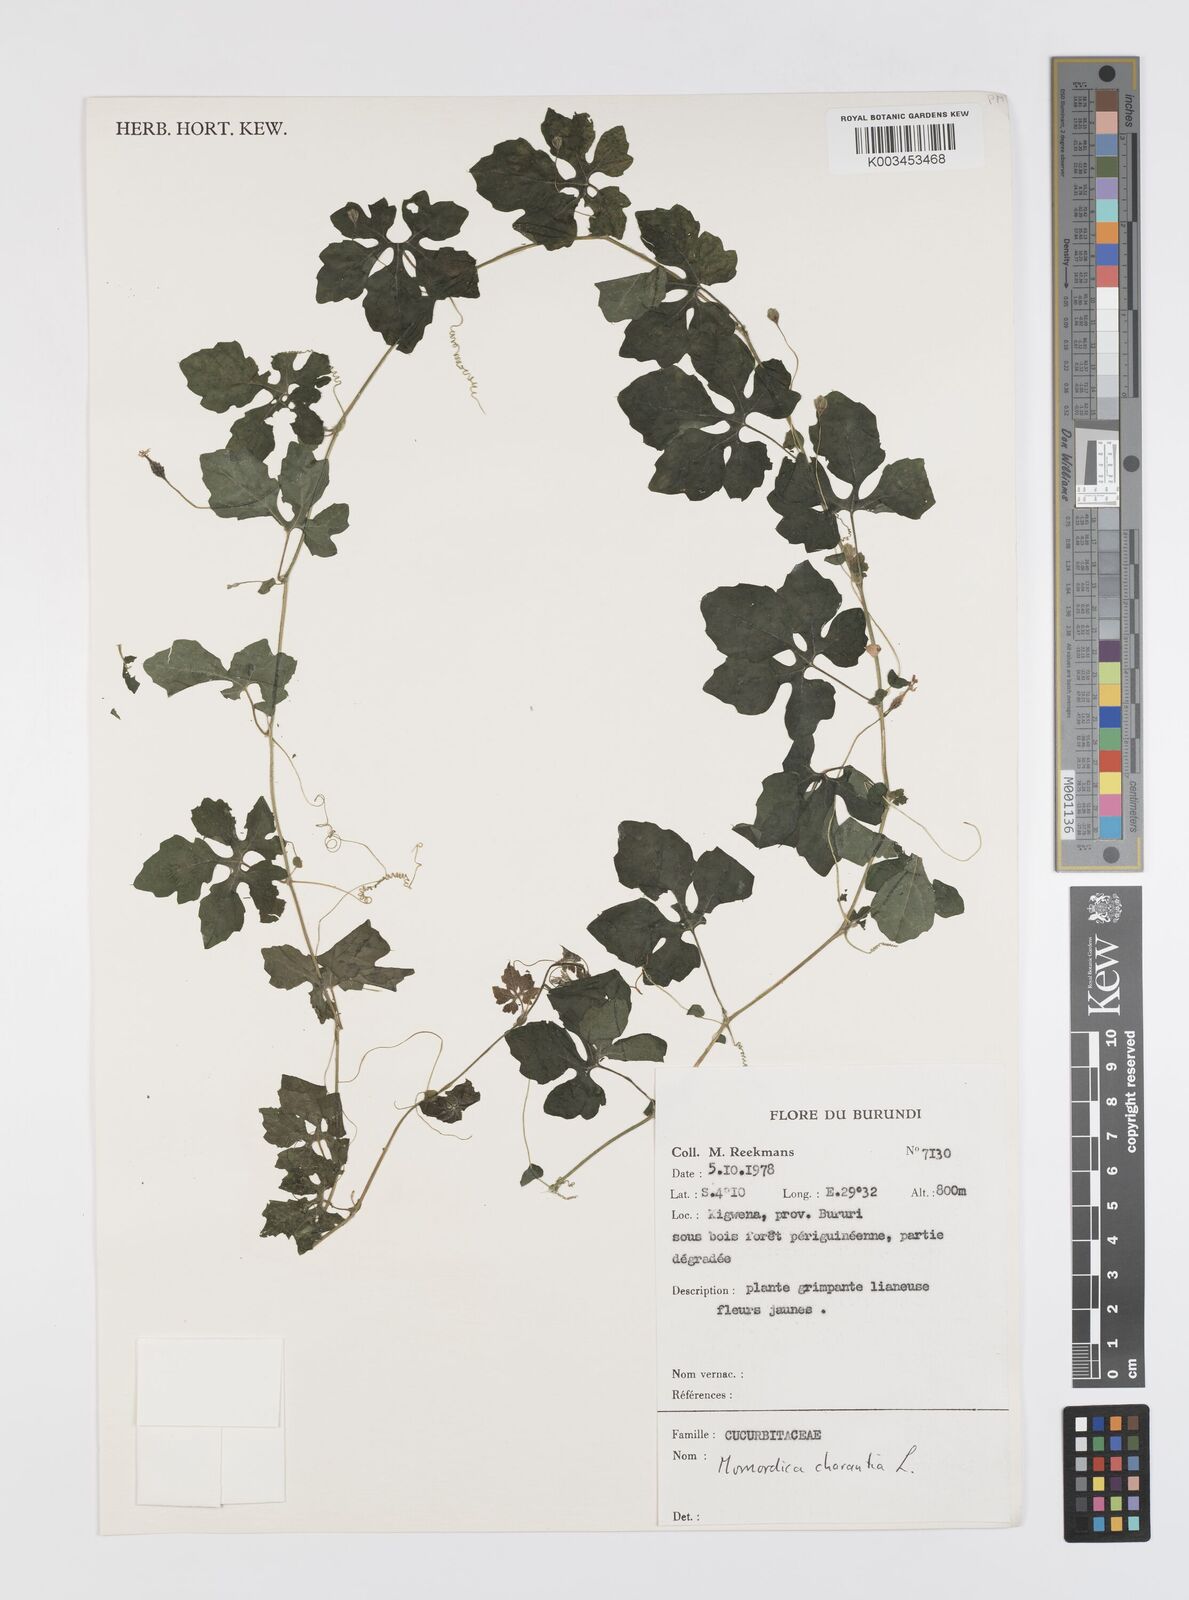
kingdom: Plantae
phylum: Tracheophyta
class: Magnoliopsida
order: Cucurbitales
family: Cucurbitaceae
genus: Momordica
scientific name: Momordica charantia
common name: Balsampear
